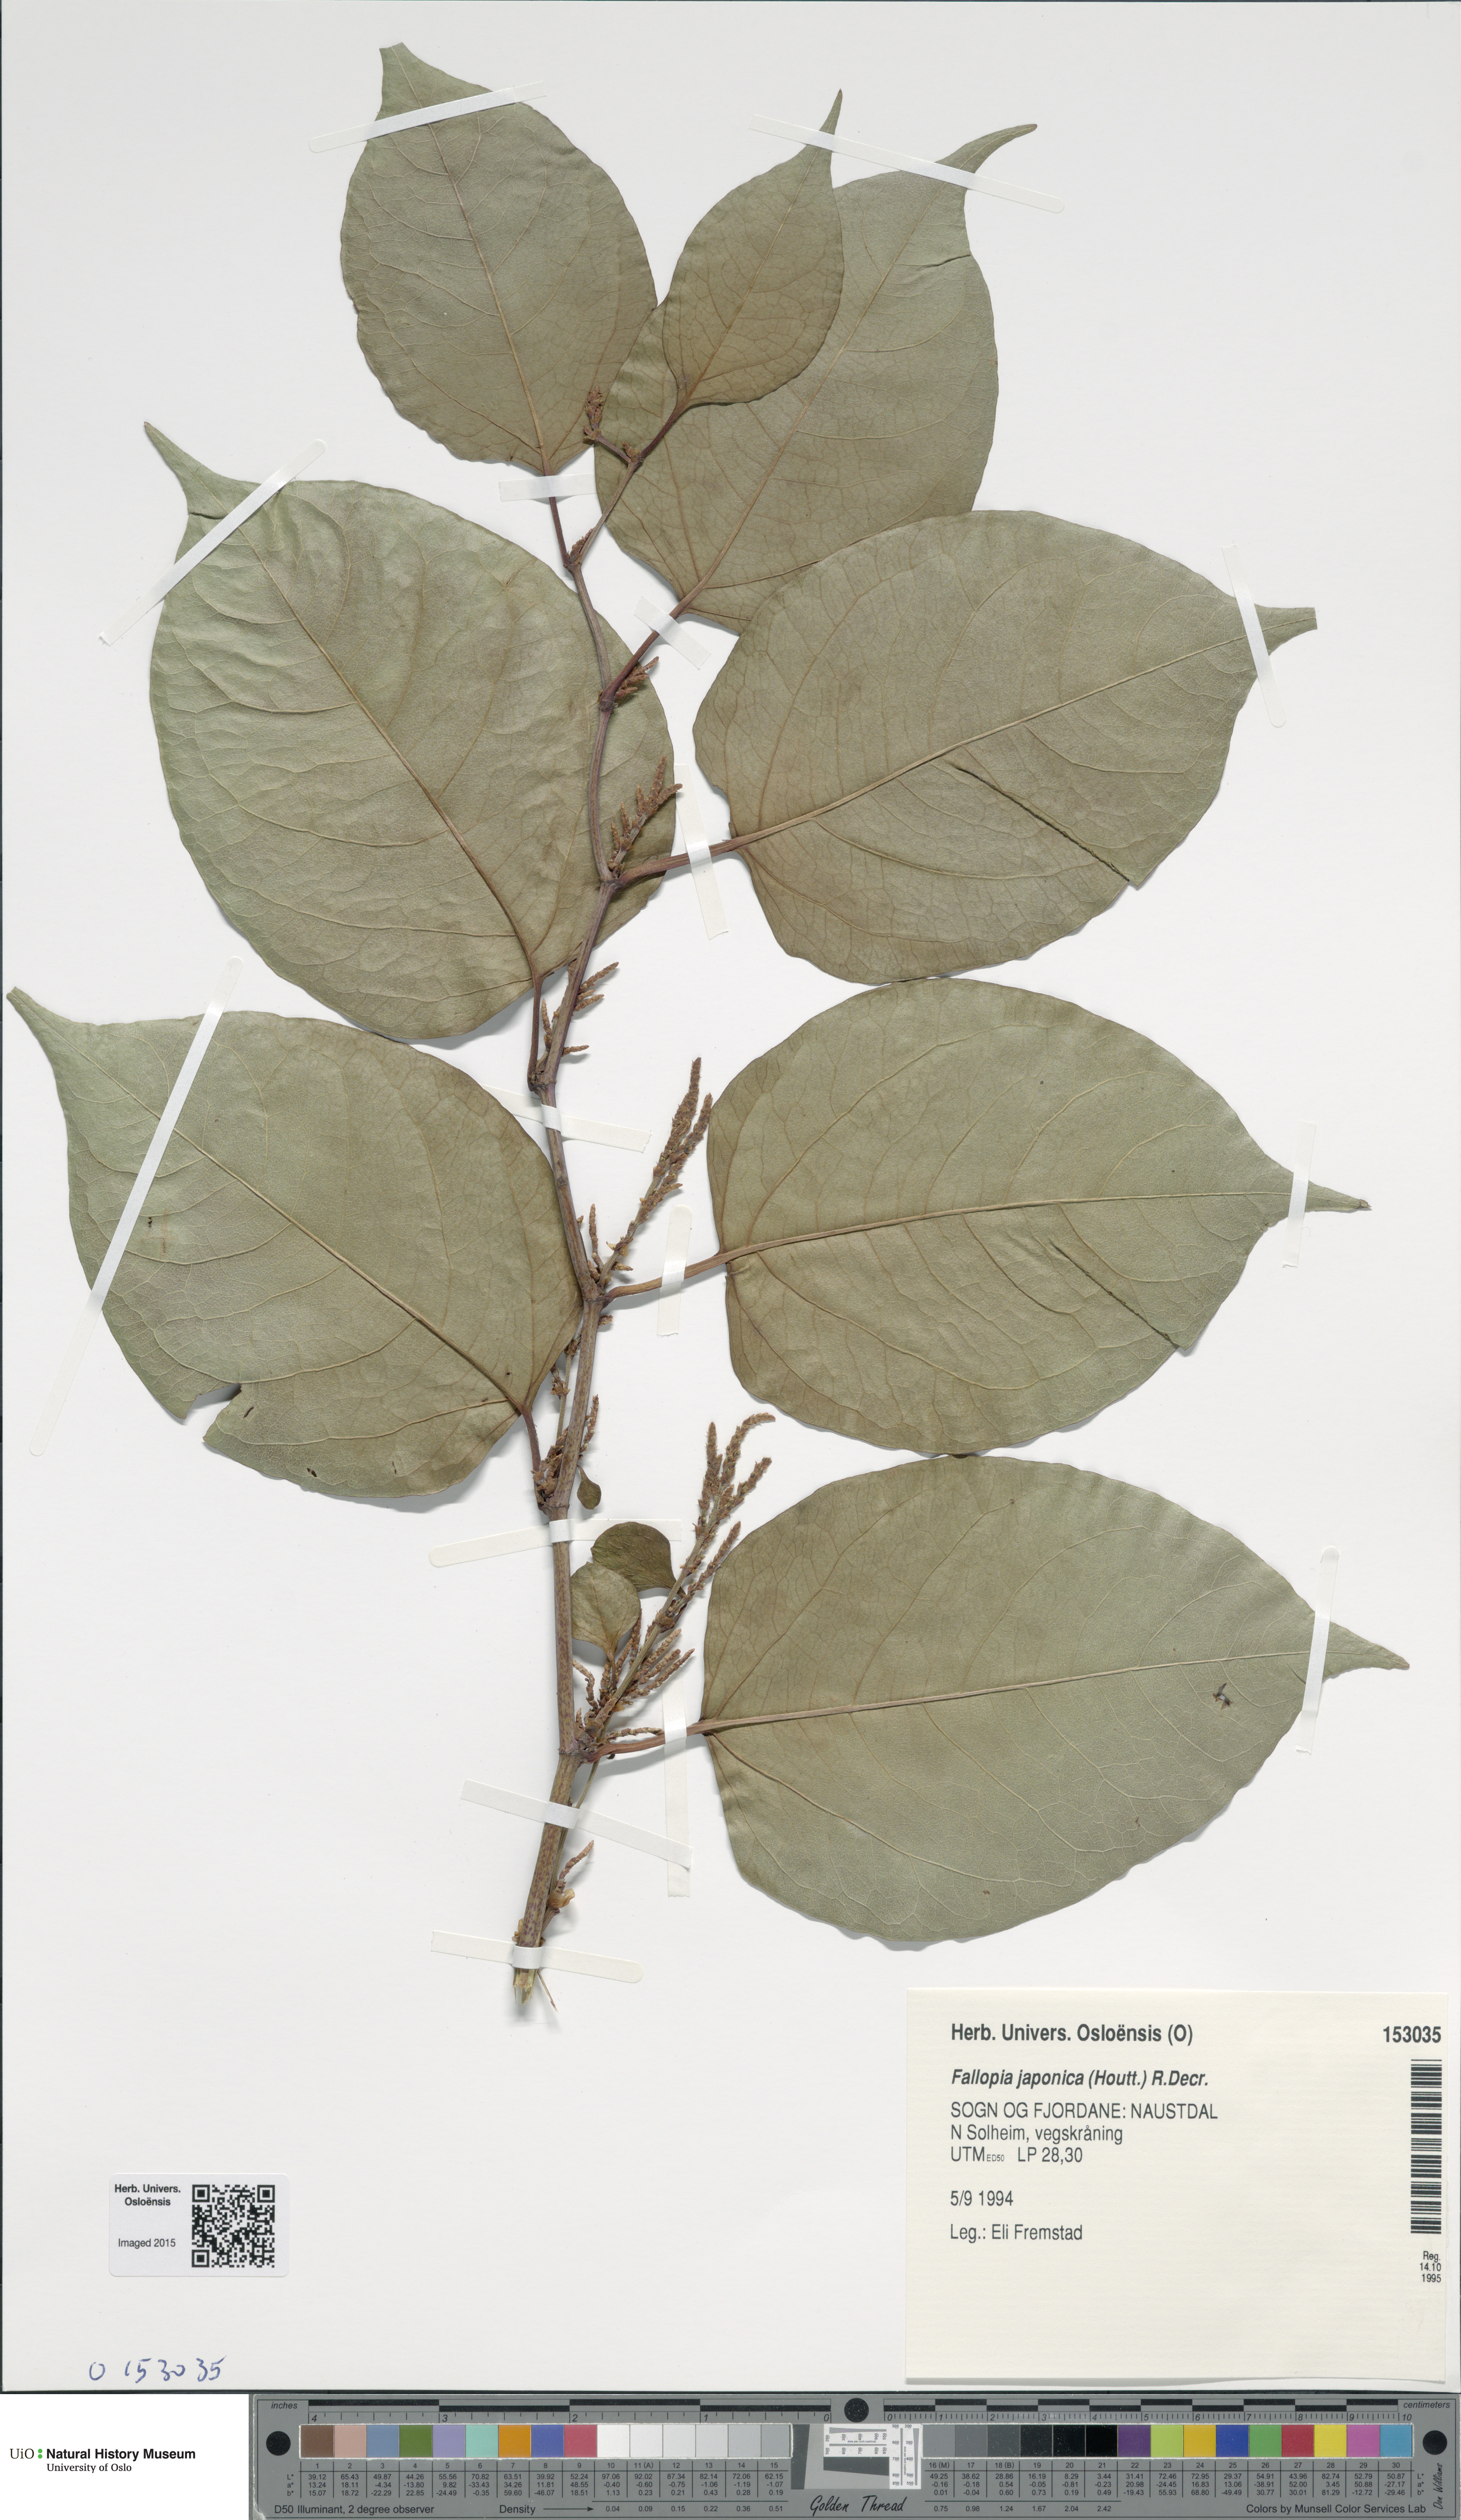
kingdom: Plantae
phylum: Tracheophyta
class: Magnoliopsida
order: Caryophyllales
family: Polygonaceae
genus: Reynoutria
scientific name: Reynoutria japonica
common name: Japanese knotweed
